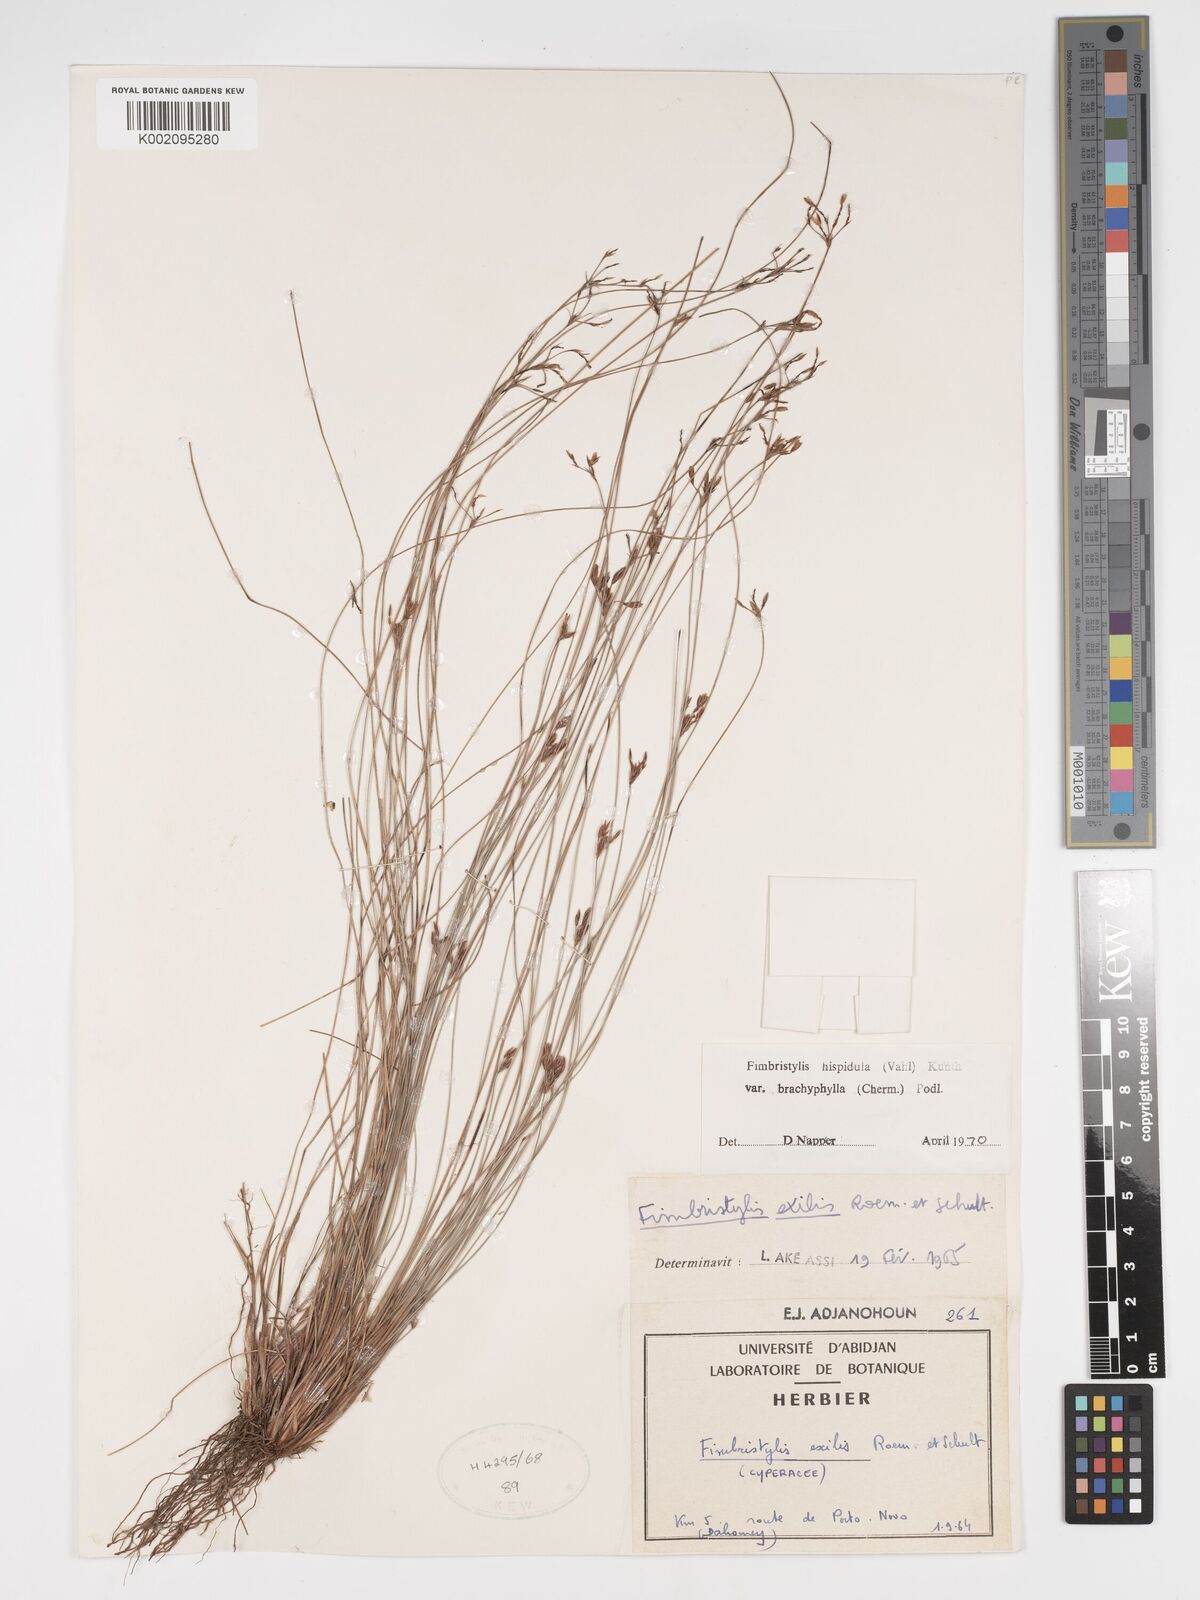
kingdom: Plantae
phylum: Tracheophyta
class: Liliopsida
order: Poales
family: Cyperaceae
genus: Bulbostylis
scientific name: Bulbostylis hispidula
